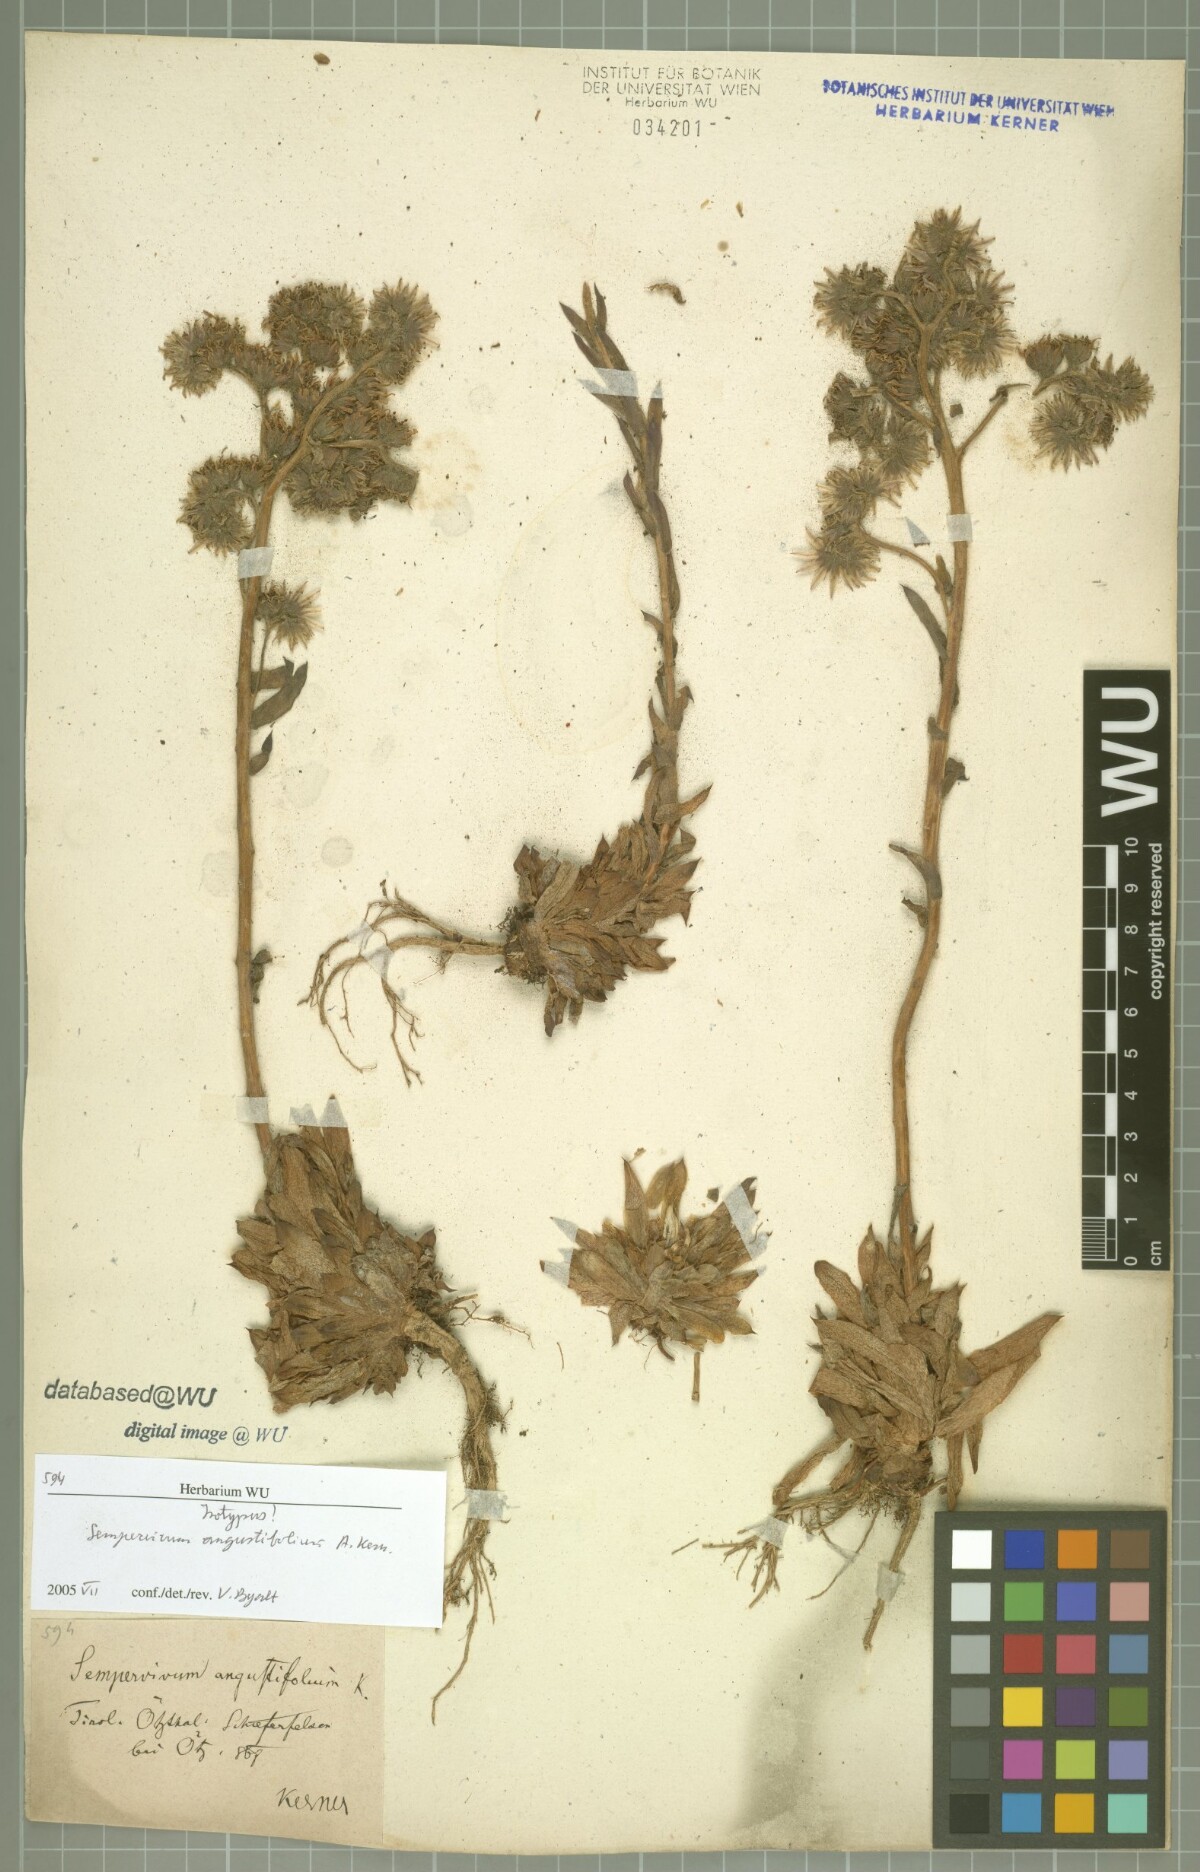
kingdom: Plantae
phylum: Tracheophyta
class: Magnoliopsida
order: Saxifragales
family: Crassulaceae
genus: Sempervivum
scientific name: Sempervivum alatum
